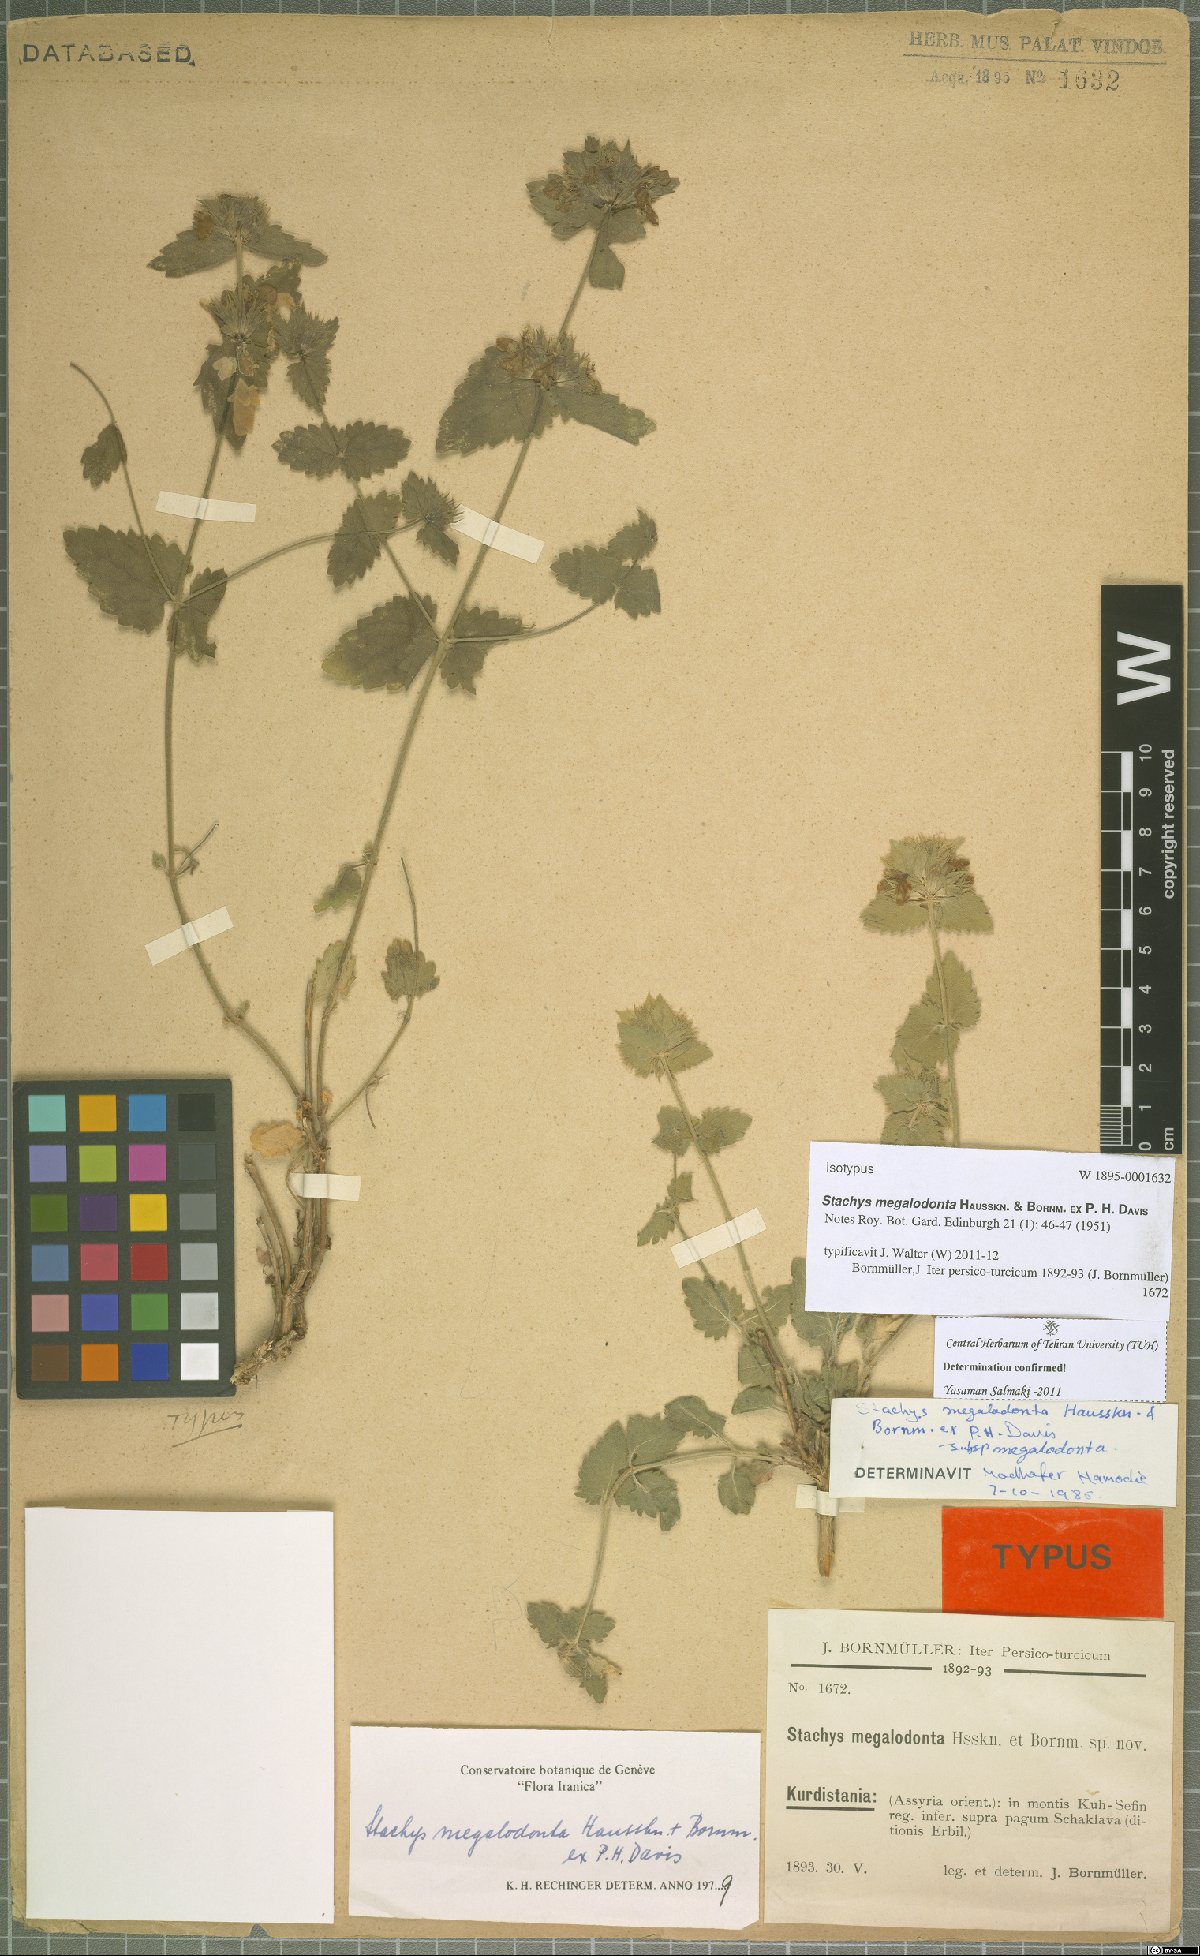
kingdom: Plantae
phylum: Tracheophyta
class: Magnoliopsida
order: Lamiales
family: Lamiaceae
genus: Stachys
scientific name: Stachys megalodonta
